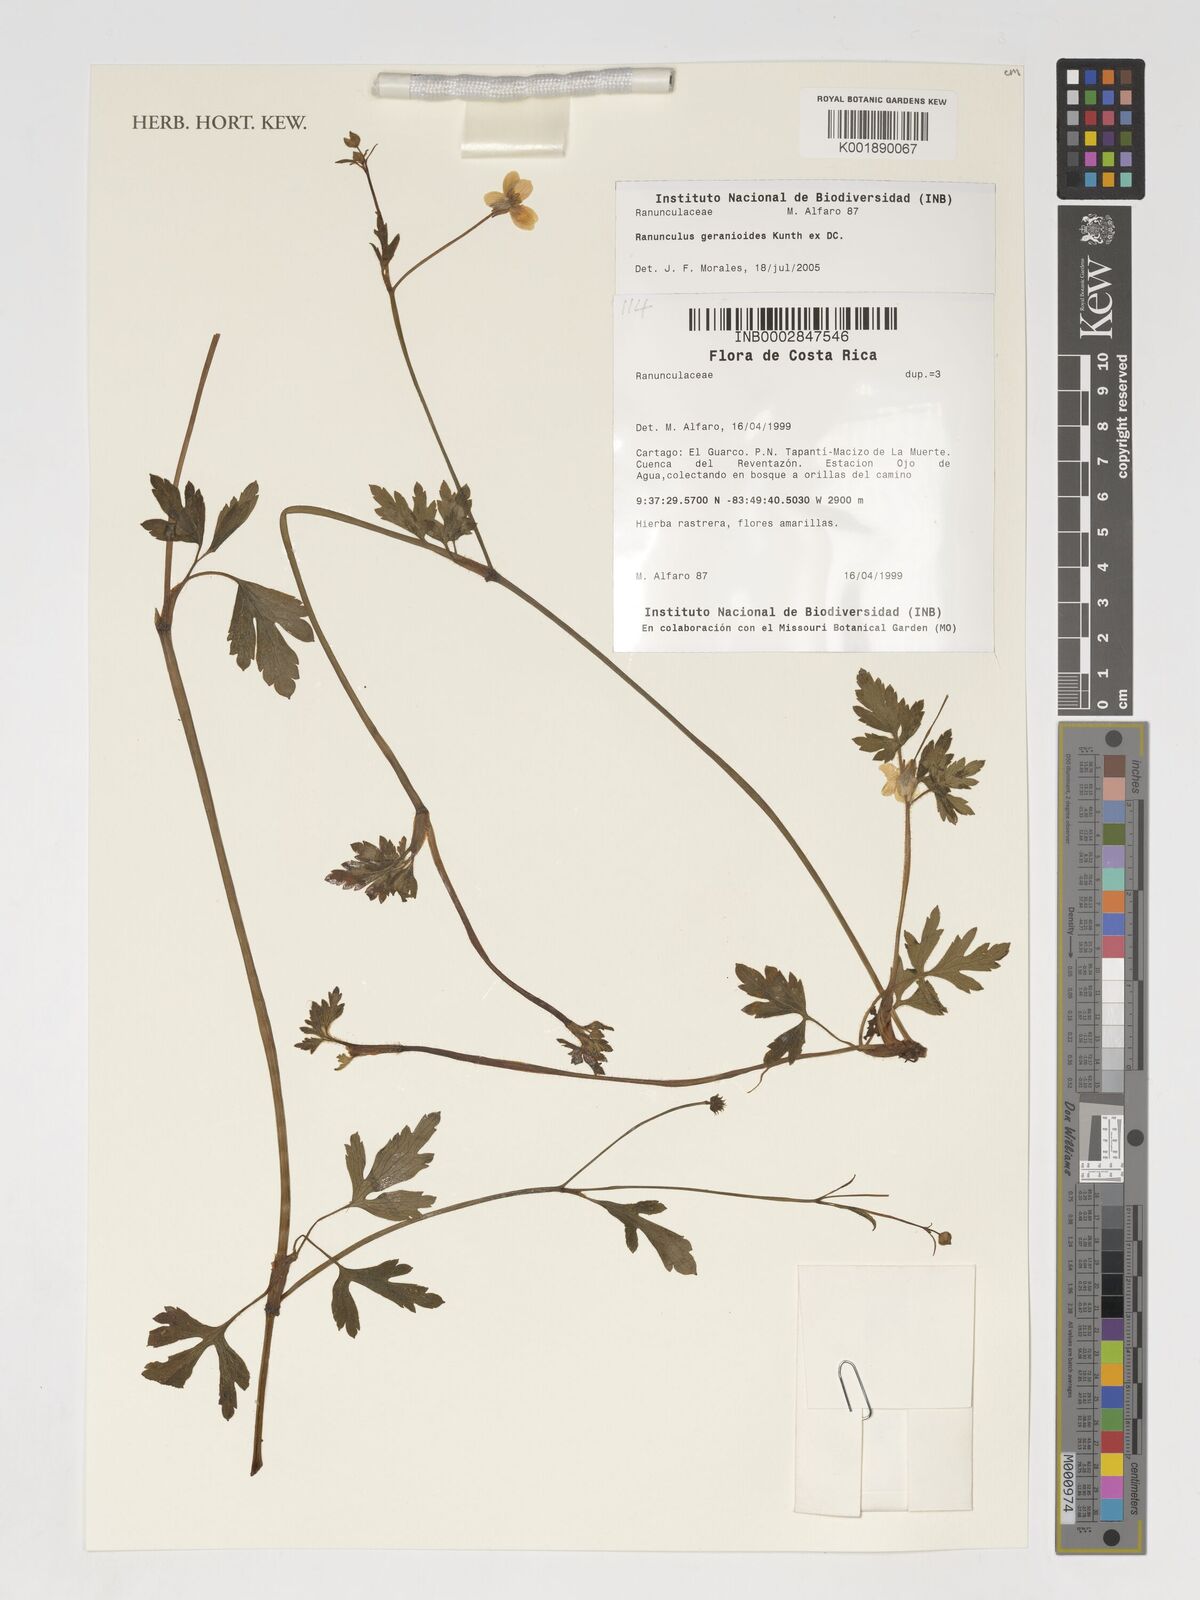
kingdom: Plantae
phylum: Tracheophyta
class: Magnoliopsida
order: Ranunculales
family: Ranunculaceae
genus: Ranunculus
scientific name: Ranunculus geranioides
